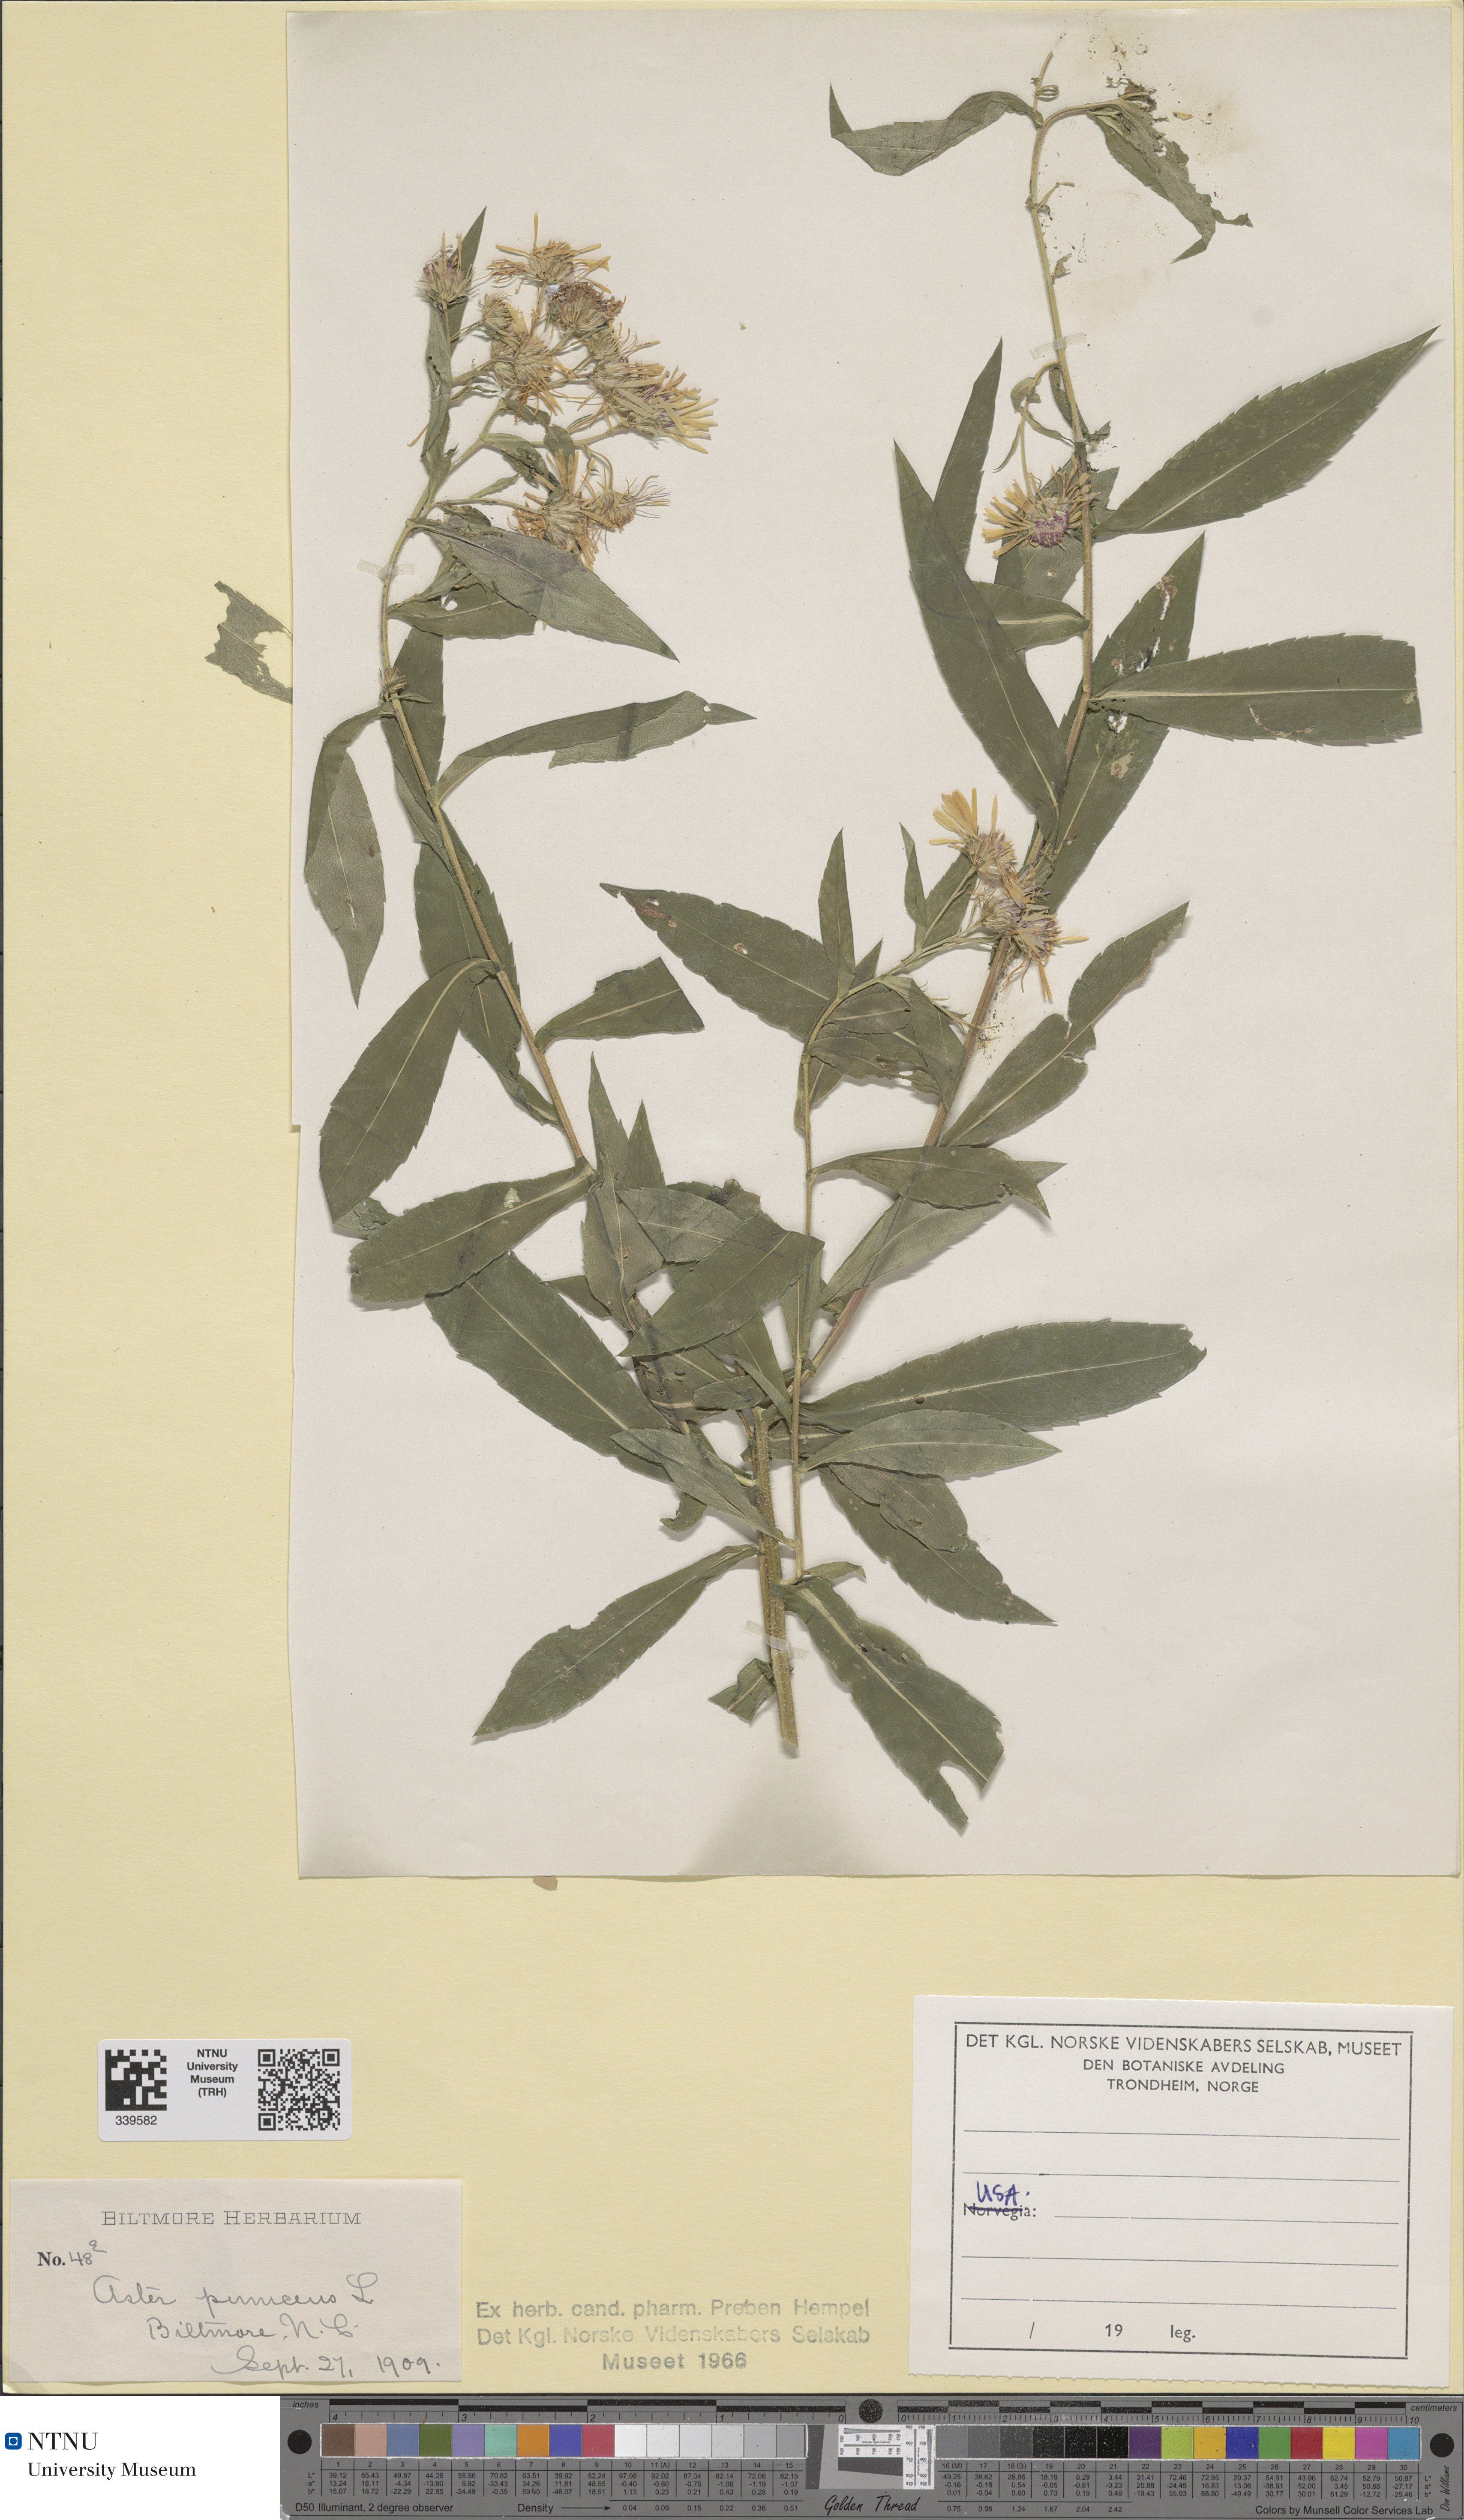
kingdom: Plantae
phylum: Tracheophyta
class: Magnoliopsida
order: Asterales
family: Asteraceae
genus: Symphyotrichum
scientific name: Symphyotrichum puniceum
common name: Bog aster
